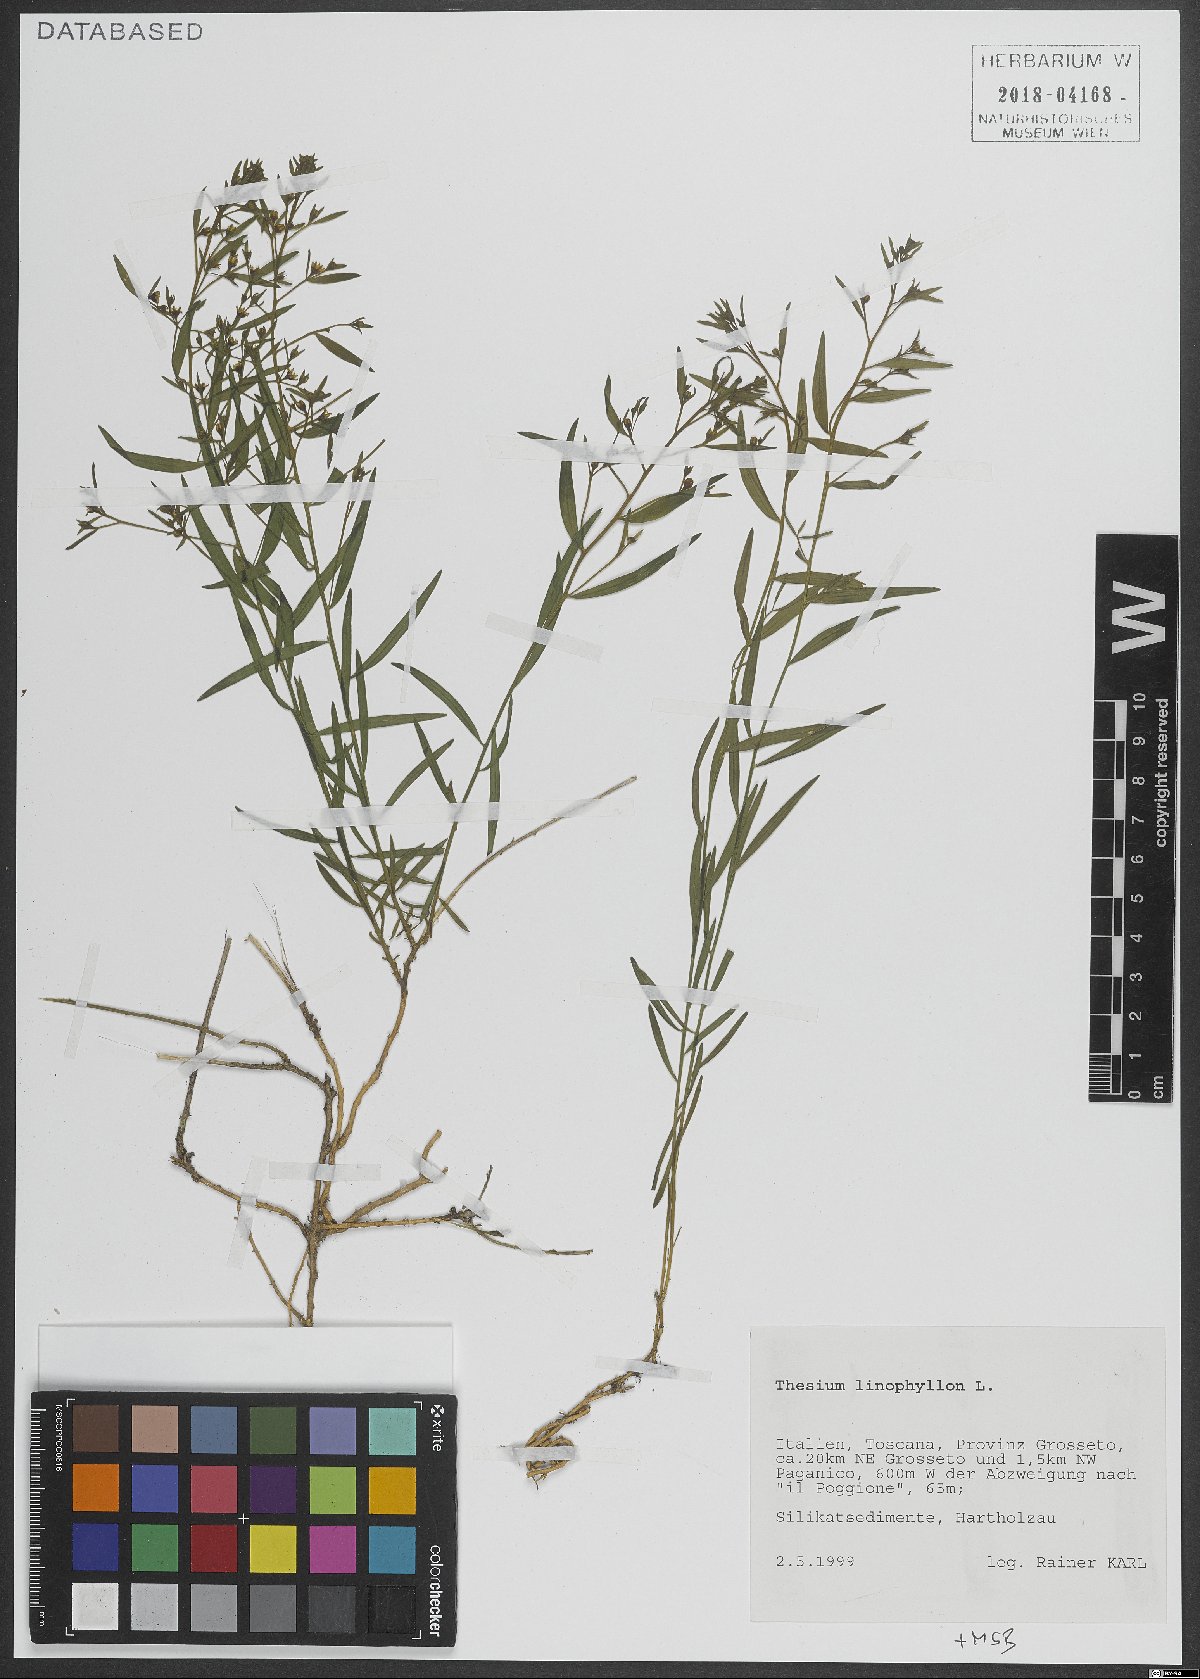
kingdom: Plantae
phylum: Tracheophyta
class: Magnoliopsida
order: Santalales
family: Thesiaceae
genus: Thesium
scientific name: Thesium linophyllon
